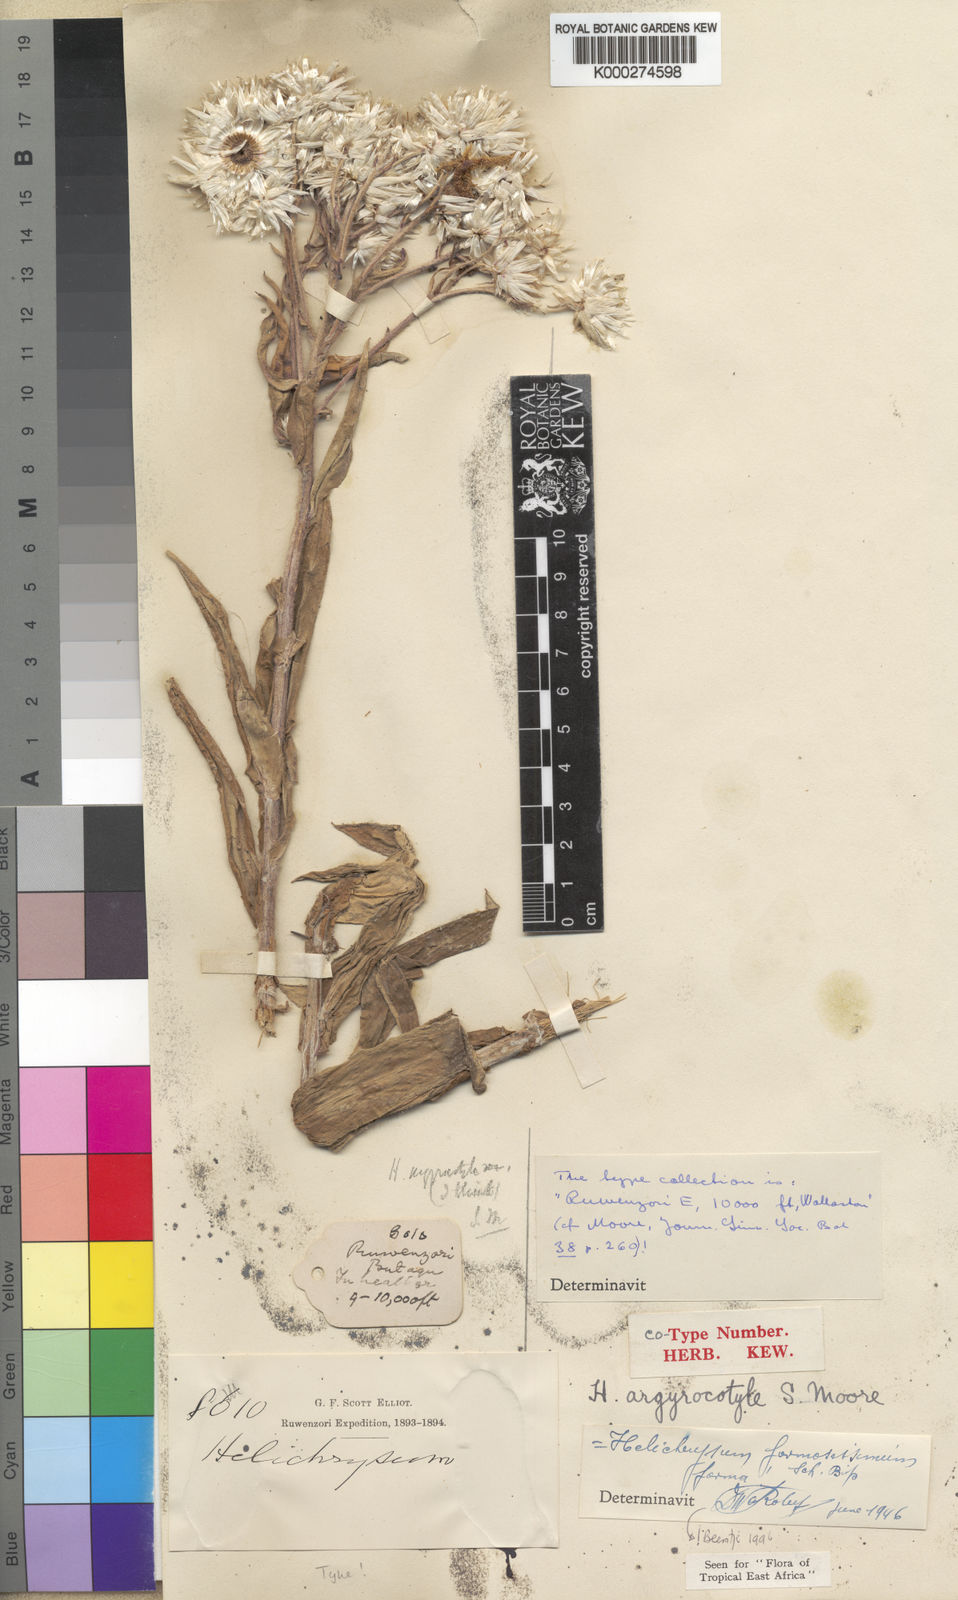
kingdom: Plantae
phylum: Tracheophyta
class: Magnoliopsida
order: Asterales
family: Asteraceae
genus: Helichrysum
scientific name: Helichrysum
